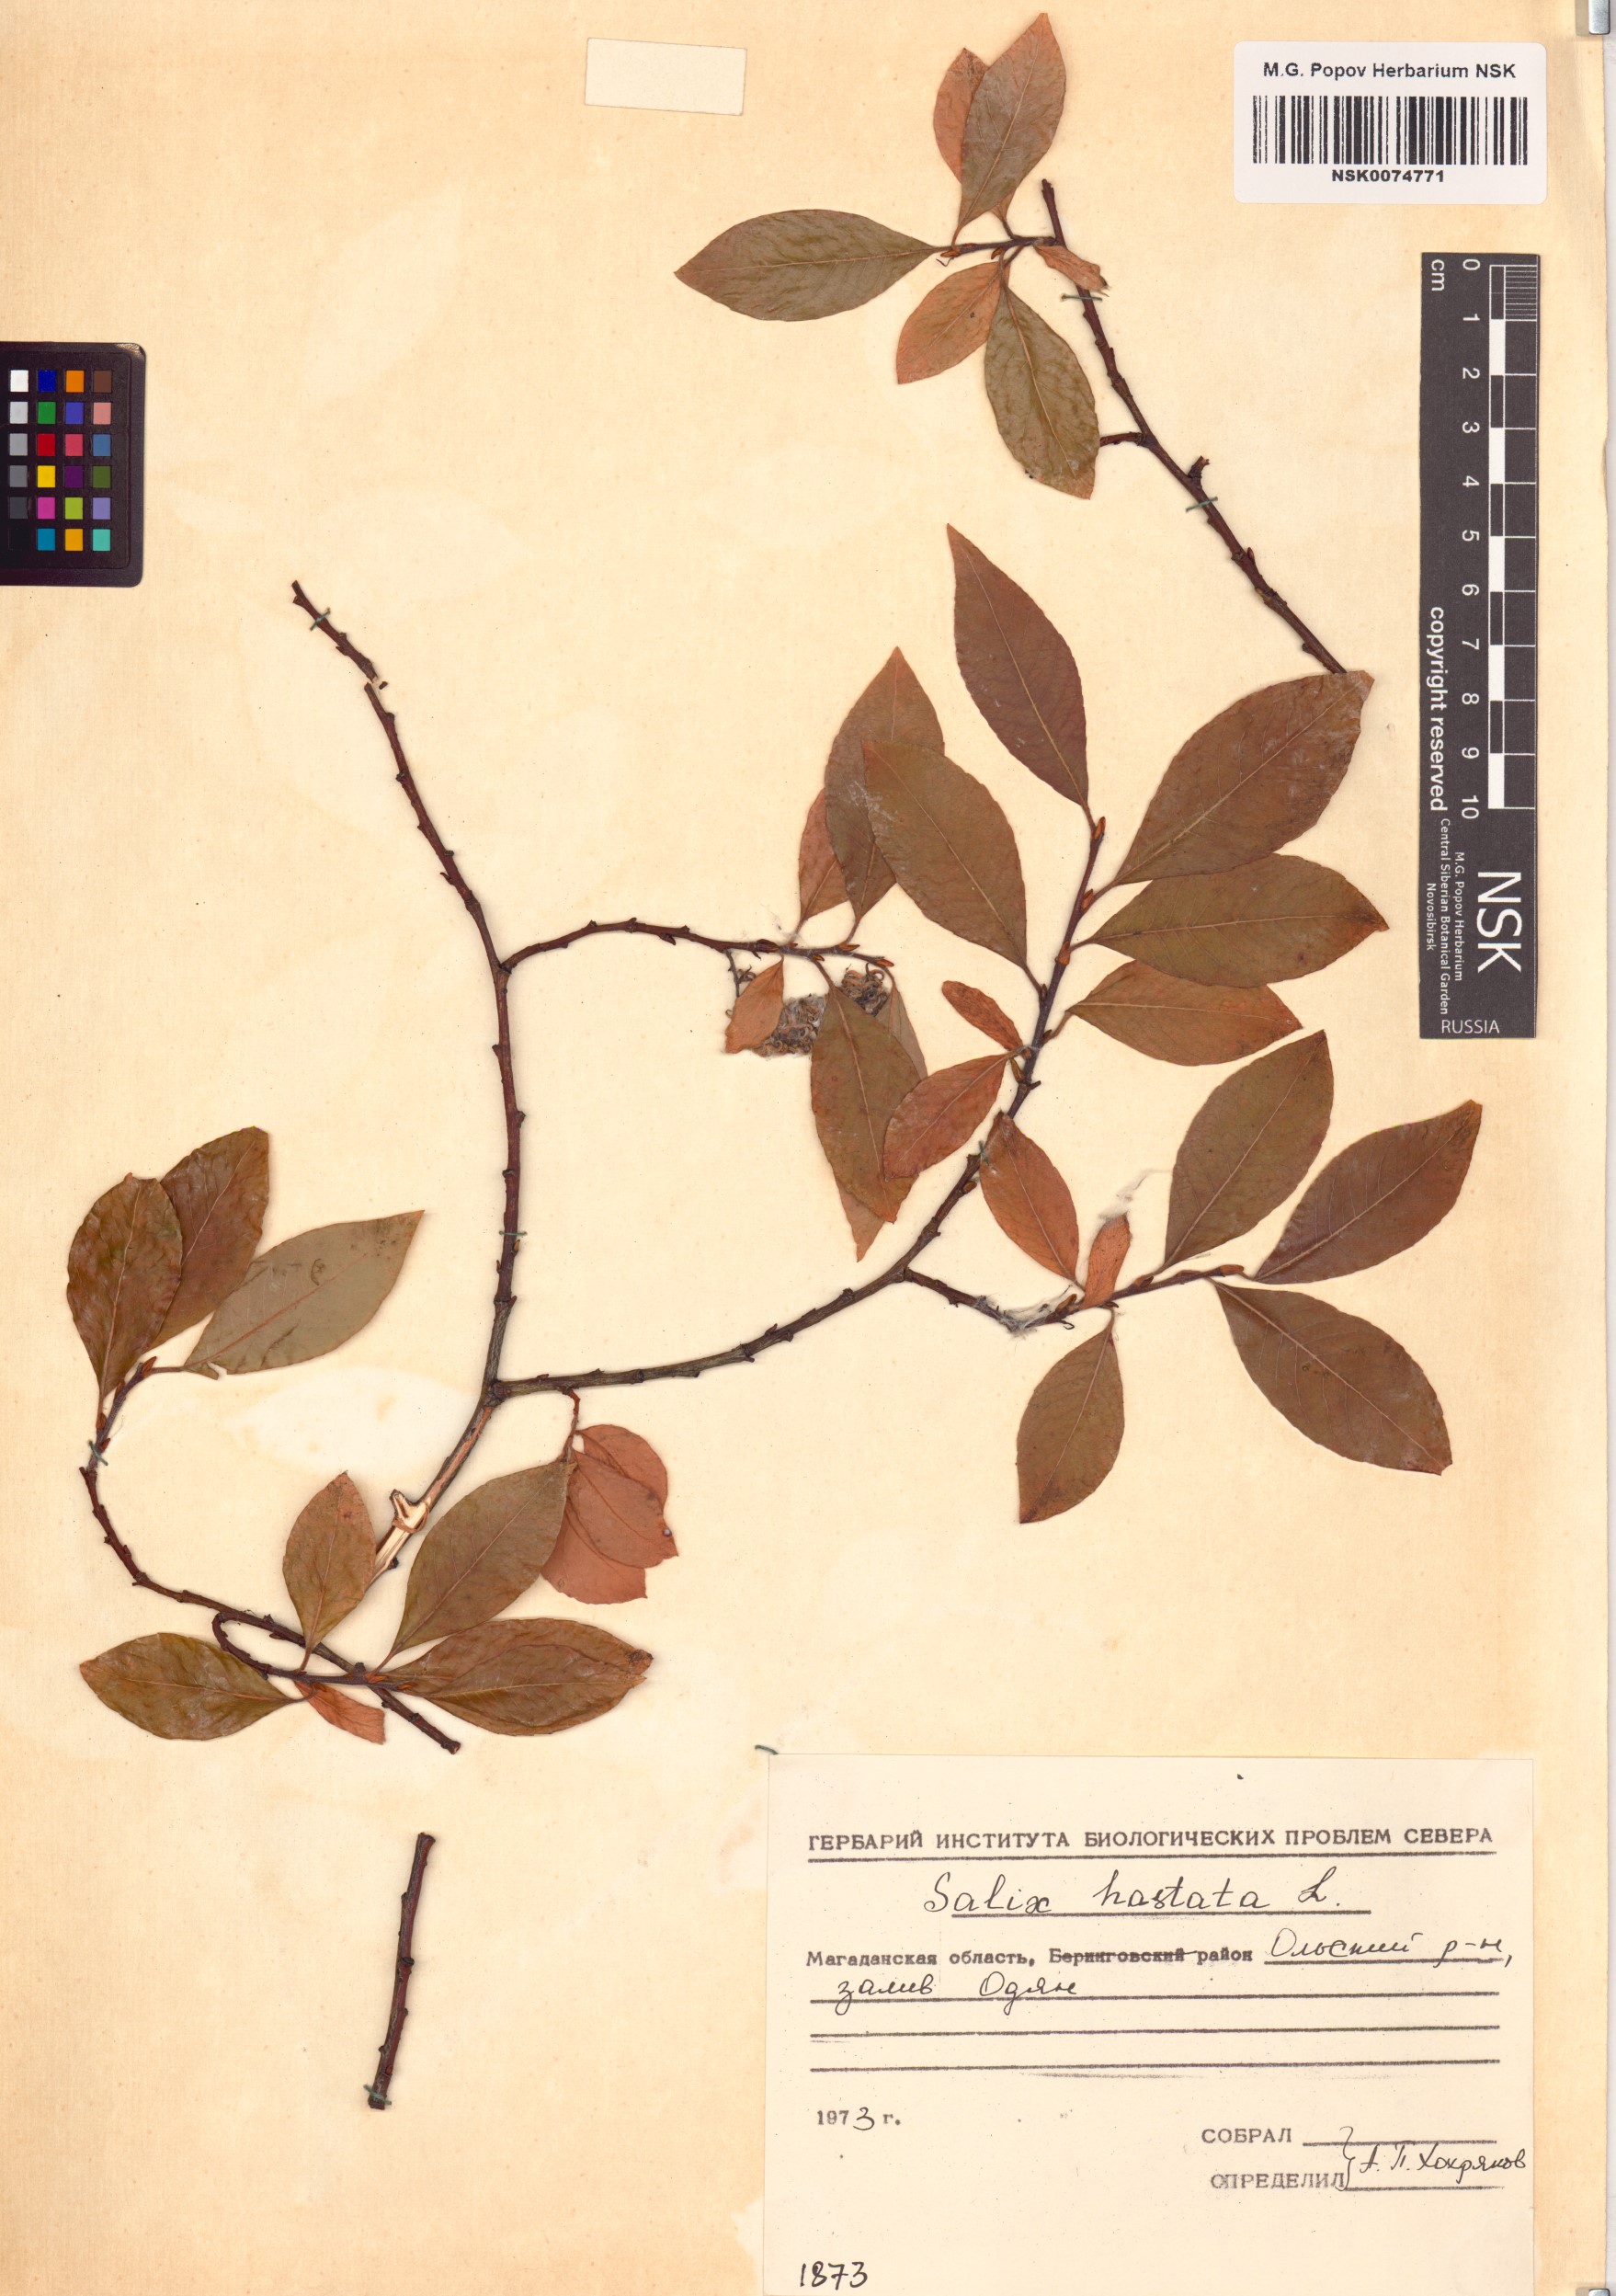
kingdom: Plantae
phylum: Tracheophyta
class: Magnoliopsida
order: Malpighiales
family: Salicaceae
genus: Salix
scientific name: Salix hastata
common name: Halberd willow
